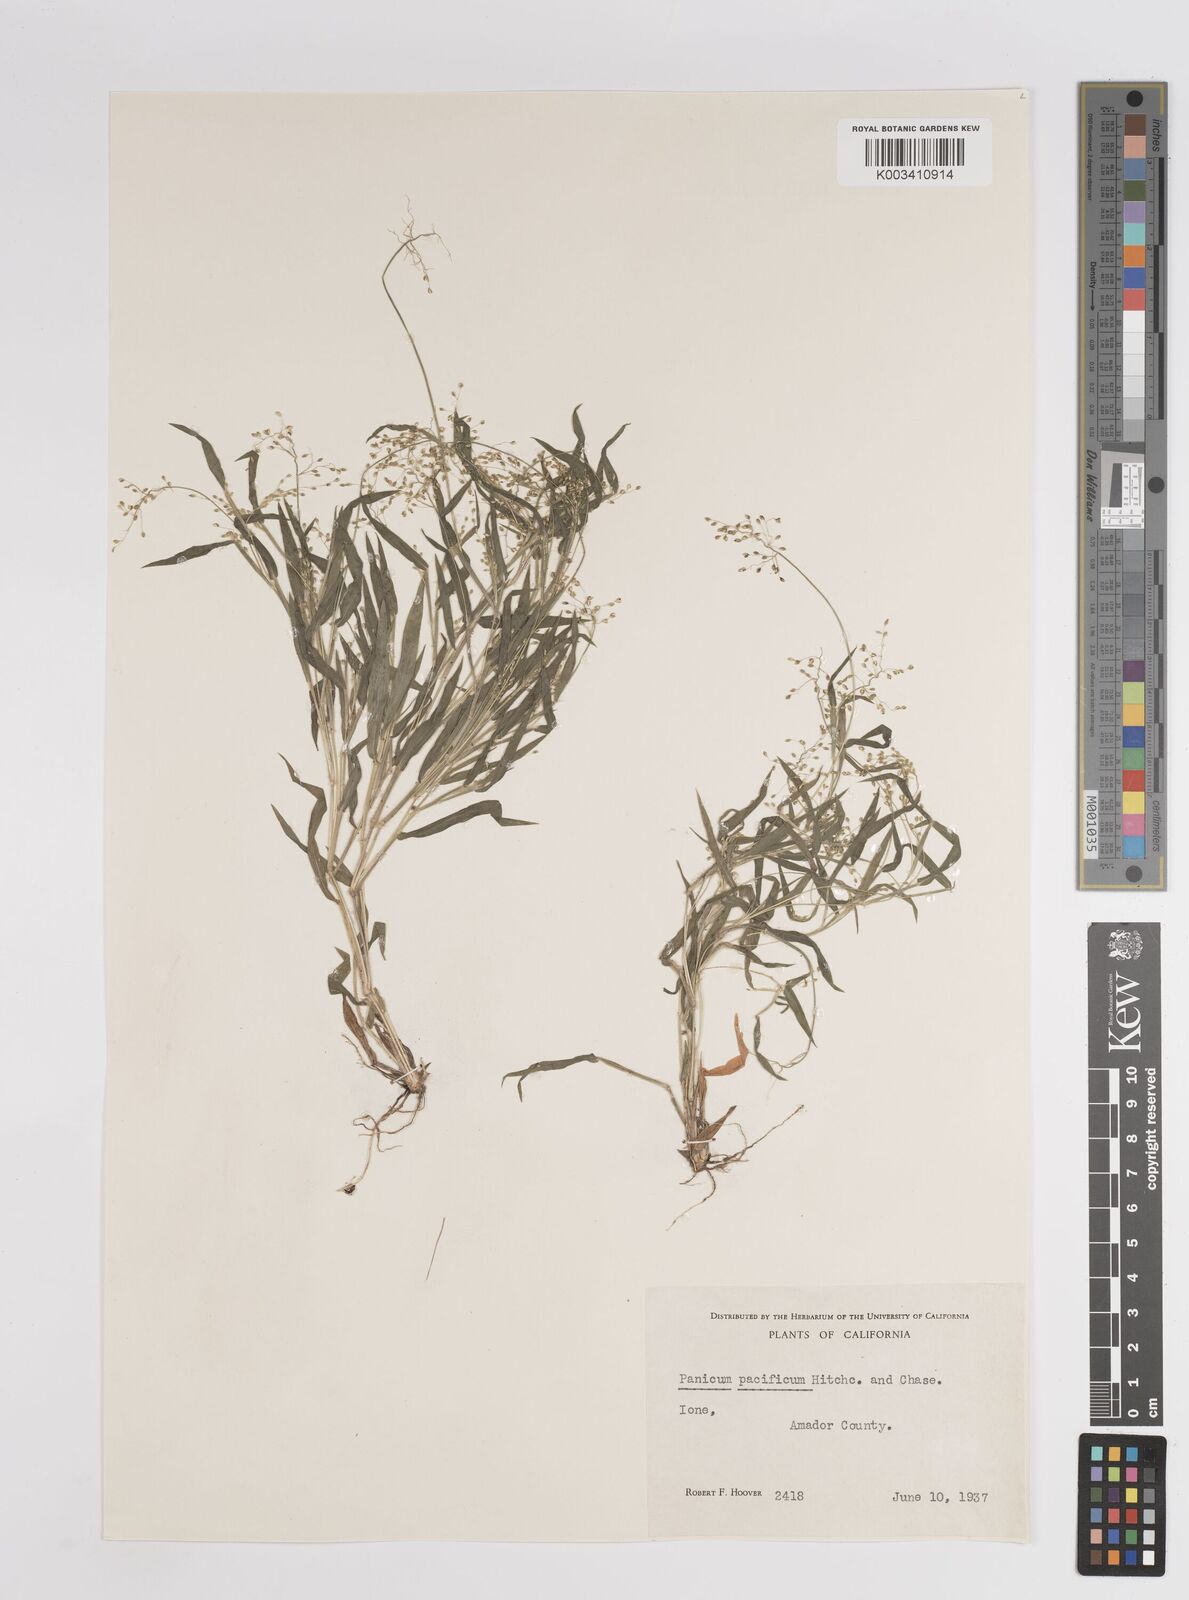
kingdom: Plantae
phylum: Tracheophyta
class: Liliopsida
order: Poales
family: Poaceae
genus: Dichanthelium
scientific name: Dichanthelium implicatum
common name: Slender-stemmed panicgrass
